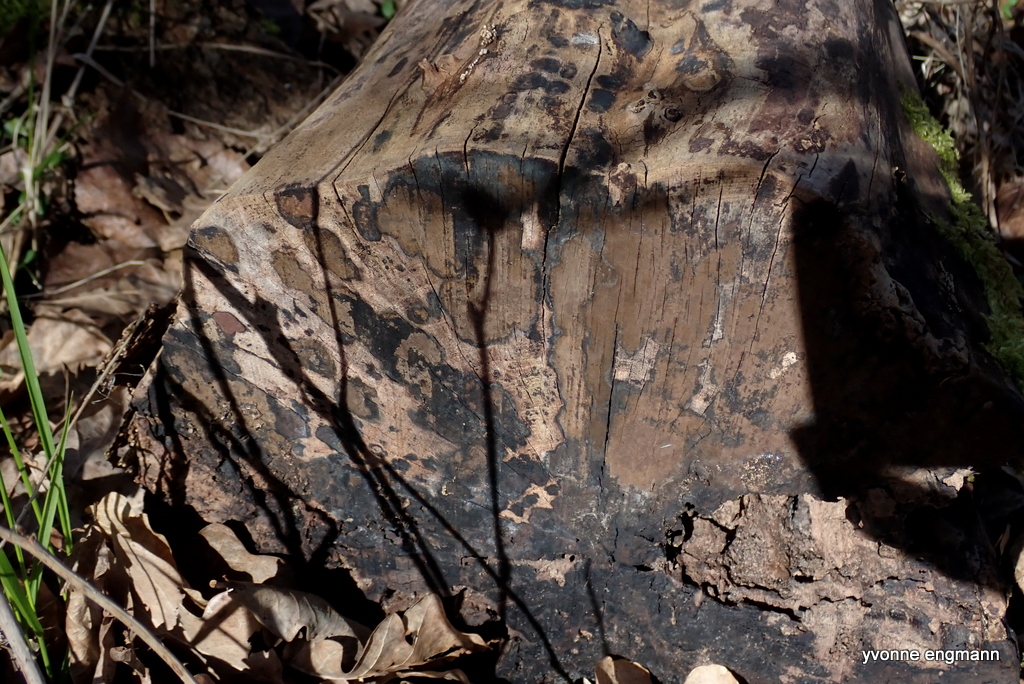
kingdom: Fungi
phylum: Ascomycota
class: Sordariomycetes
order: Xylariales
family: Hypoxylaceae
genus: Hypoxylon
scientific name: Hypoxylon petriniae
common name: nedsænket kulbær
